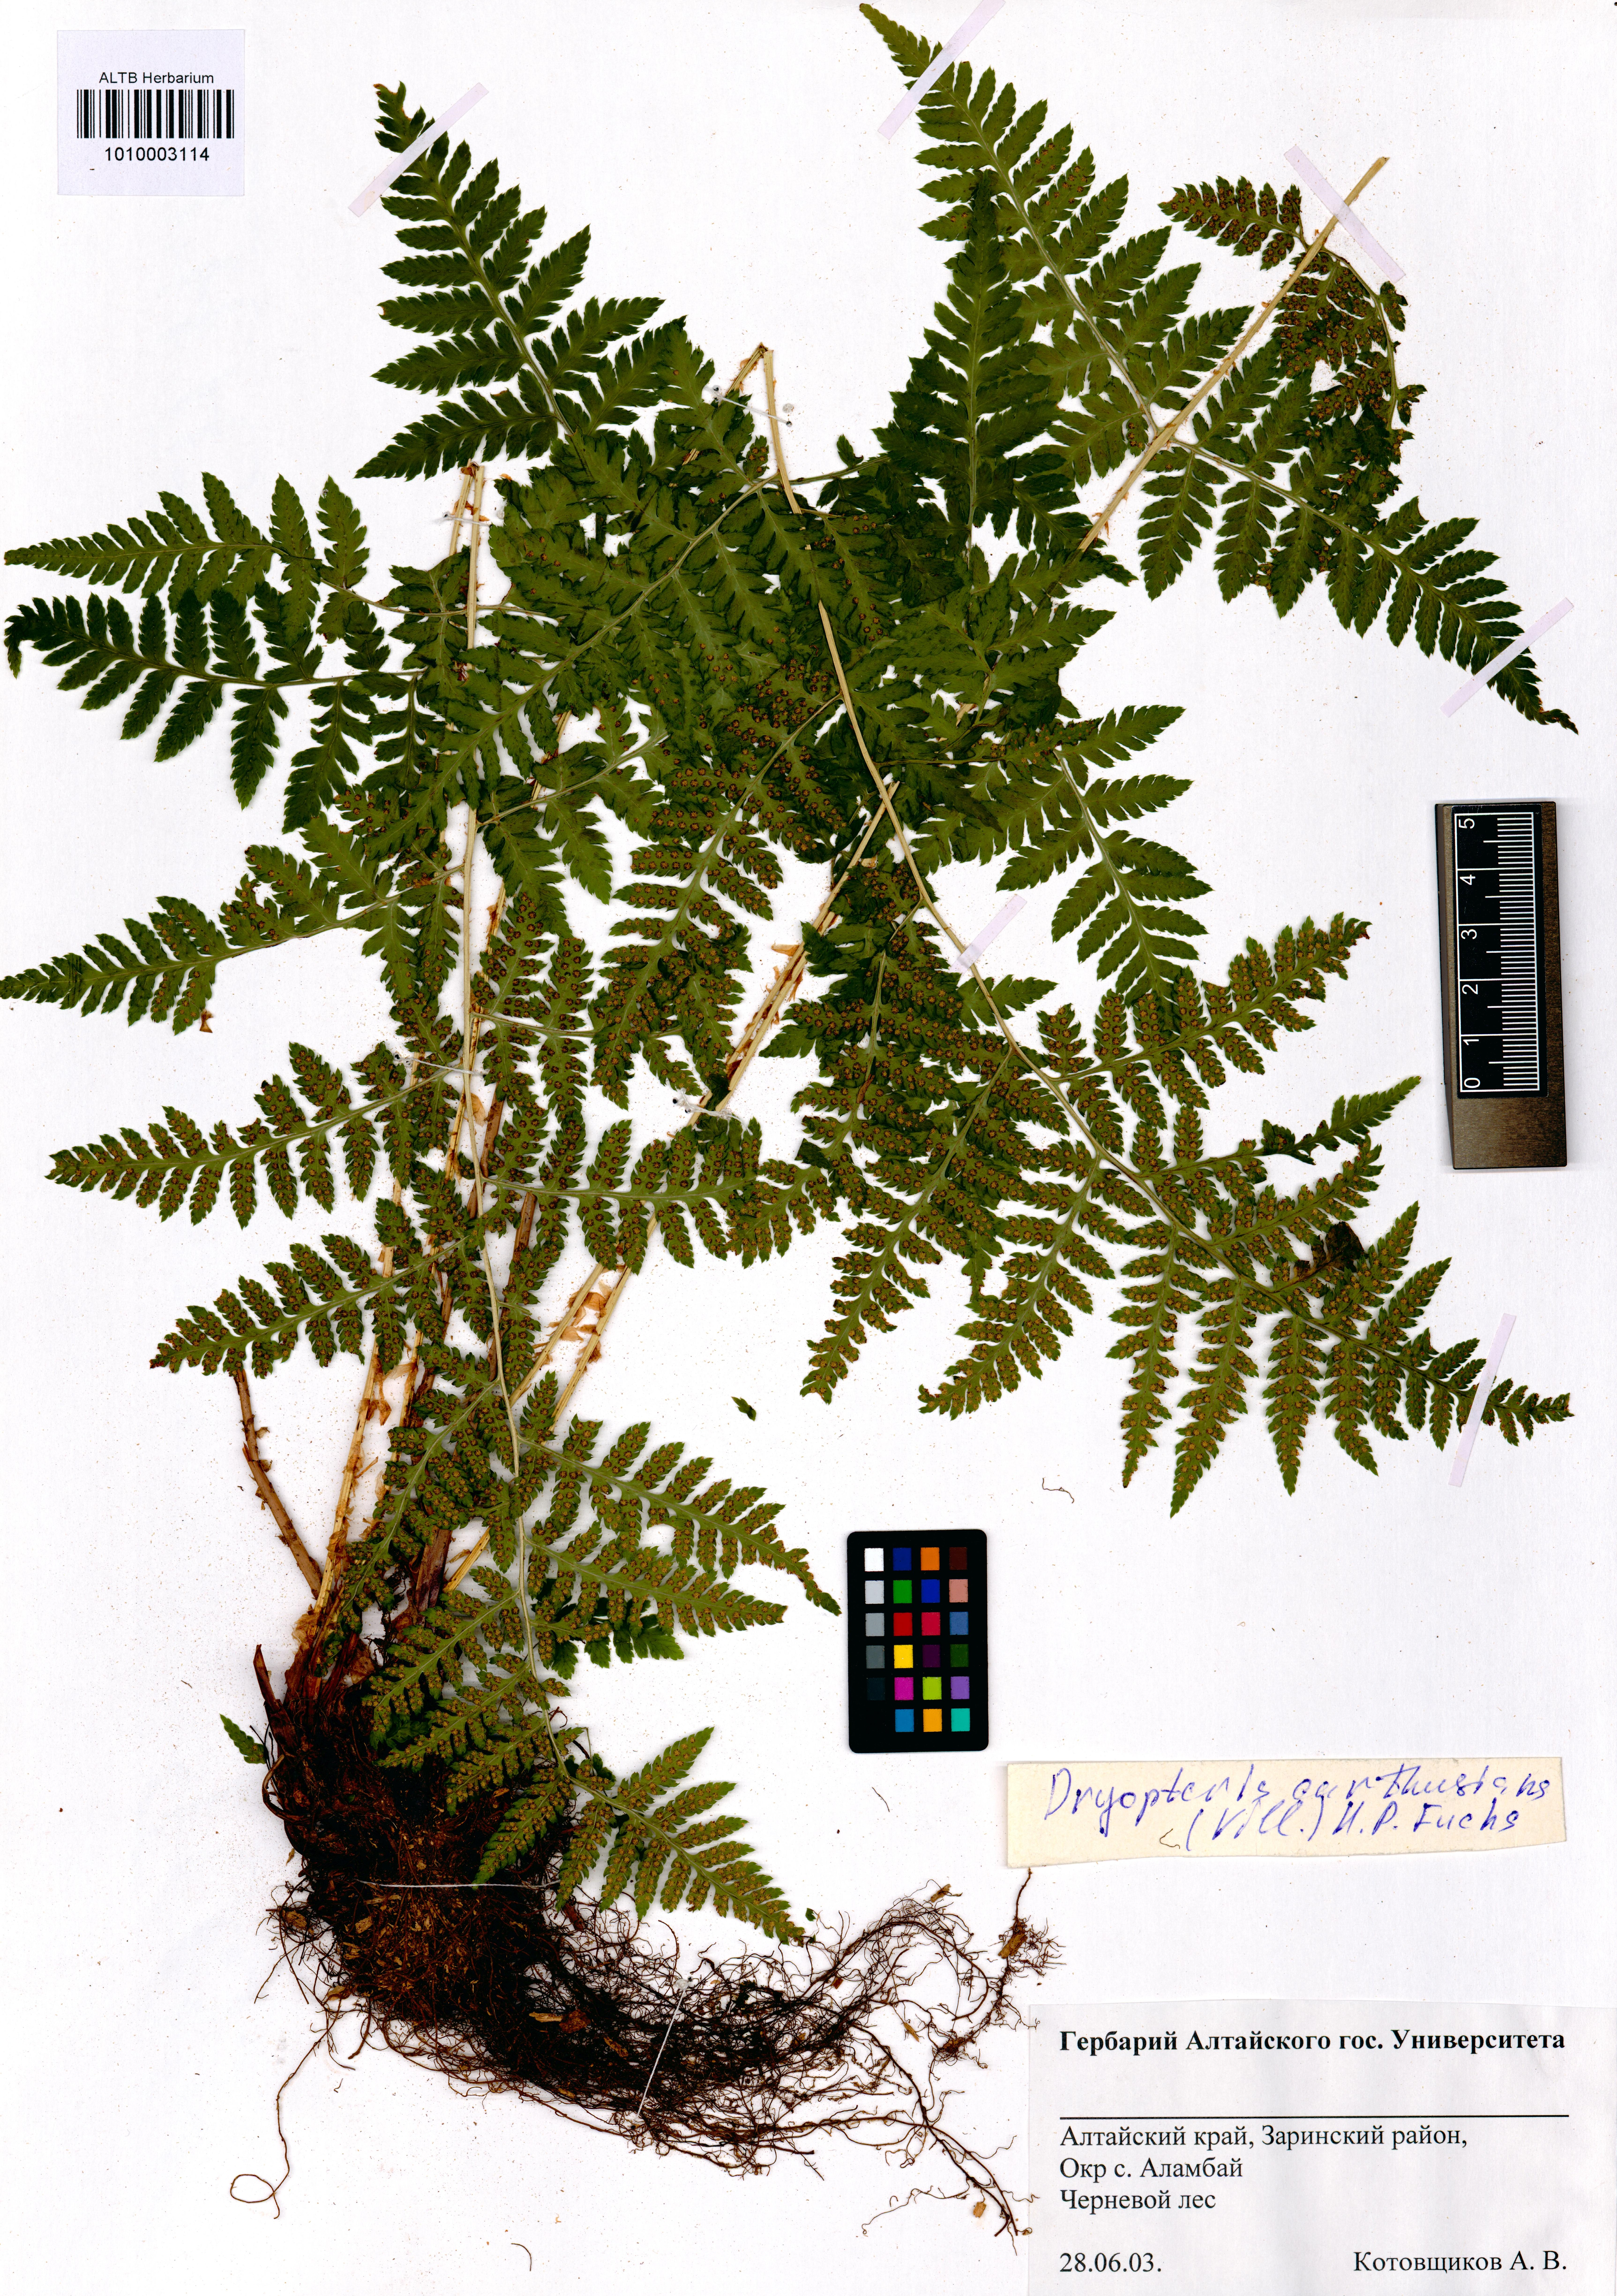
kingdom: Plantae
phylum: Tracheophyta
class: Polypodiopsida
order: Polypodiales
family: Dryopteridaceae
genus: Dryopteris
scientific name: Dryopteris carthusiana
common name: Narrow buckler-fern
